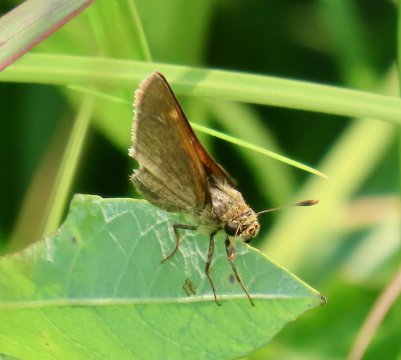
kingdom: Animalia
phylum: Arthropoda
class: Insecta
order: Lepidoptera
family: Hesperiidae
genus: Polites
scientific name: Polites themistocles
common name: Tawny-edged Skipper
